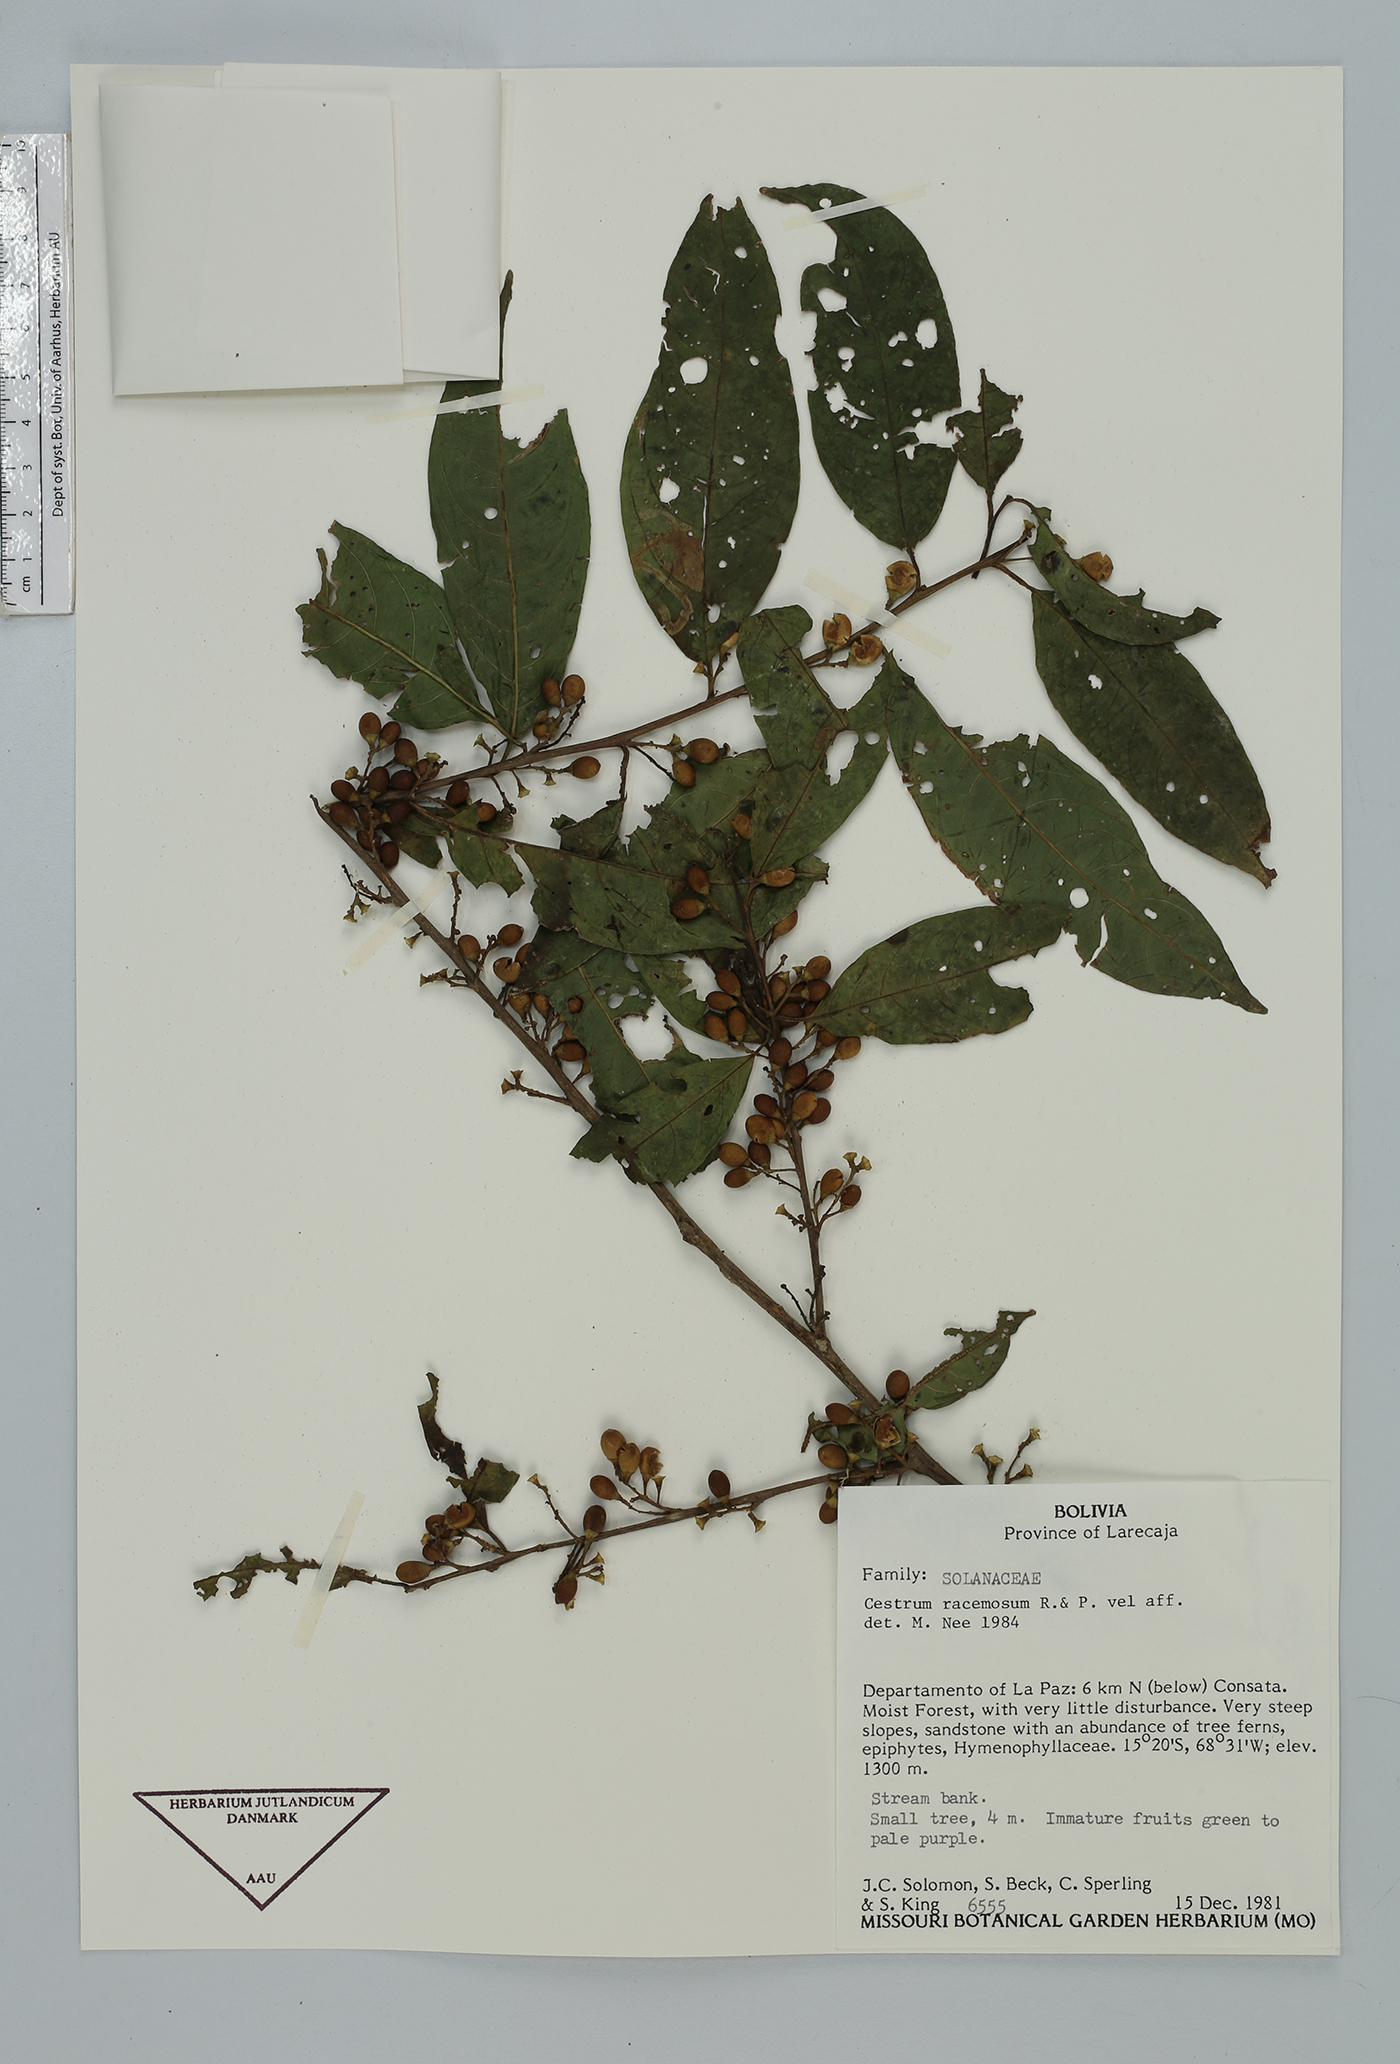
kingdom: Plantae
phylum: Tracheophyta
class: Magnoliopsida
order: Solanales
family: Solanaceae
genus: Cestrum
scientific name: Cestrum
